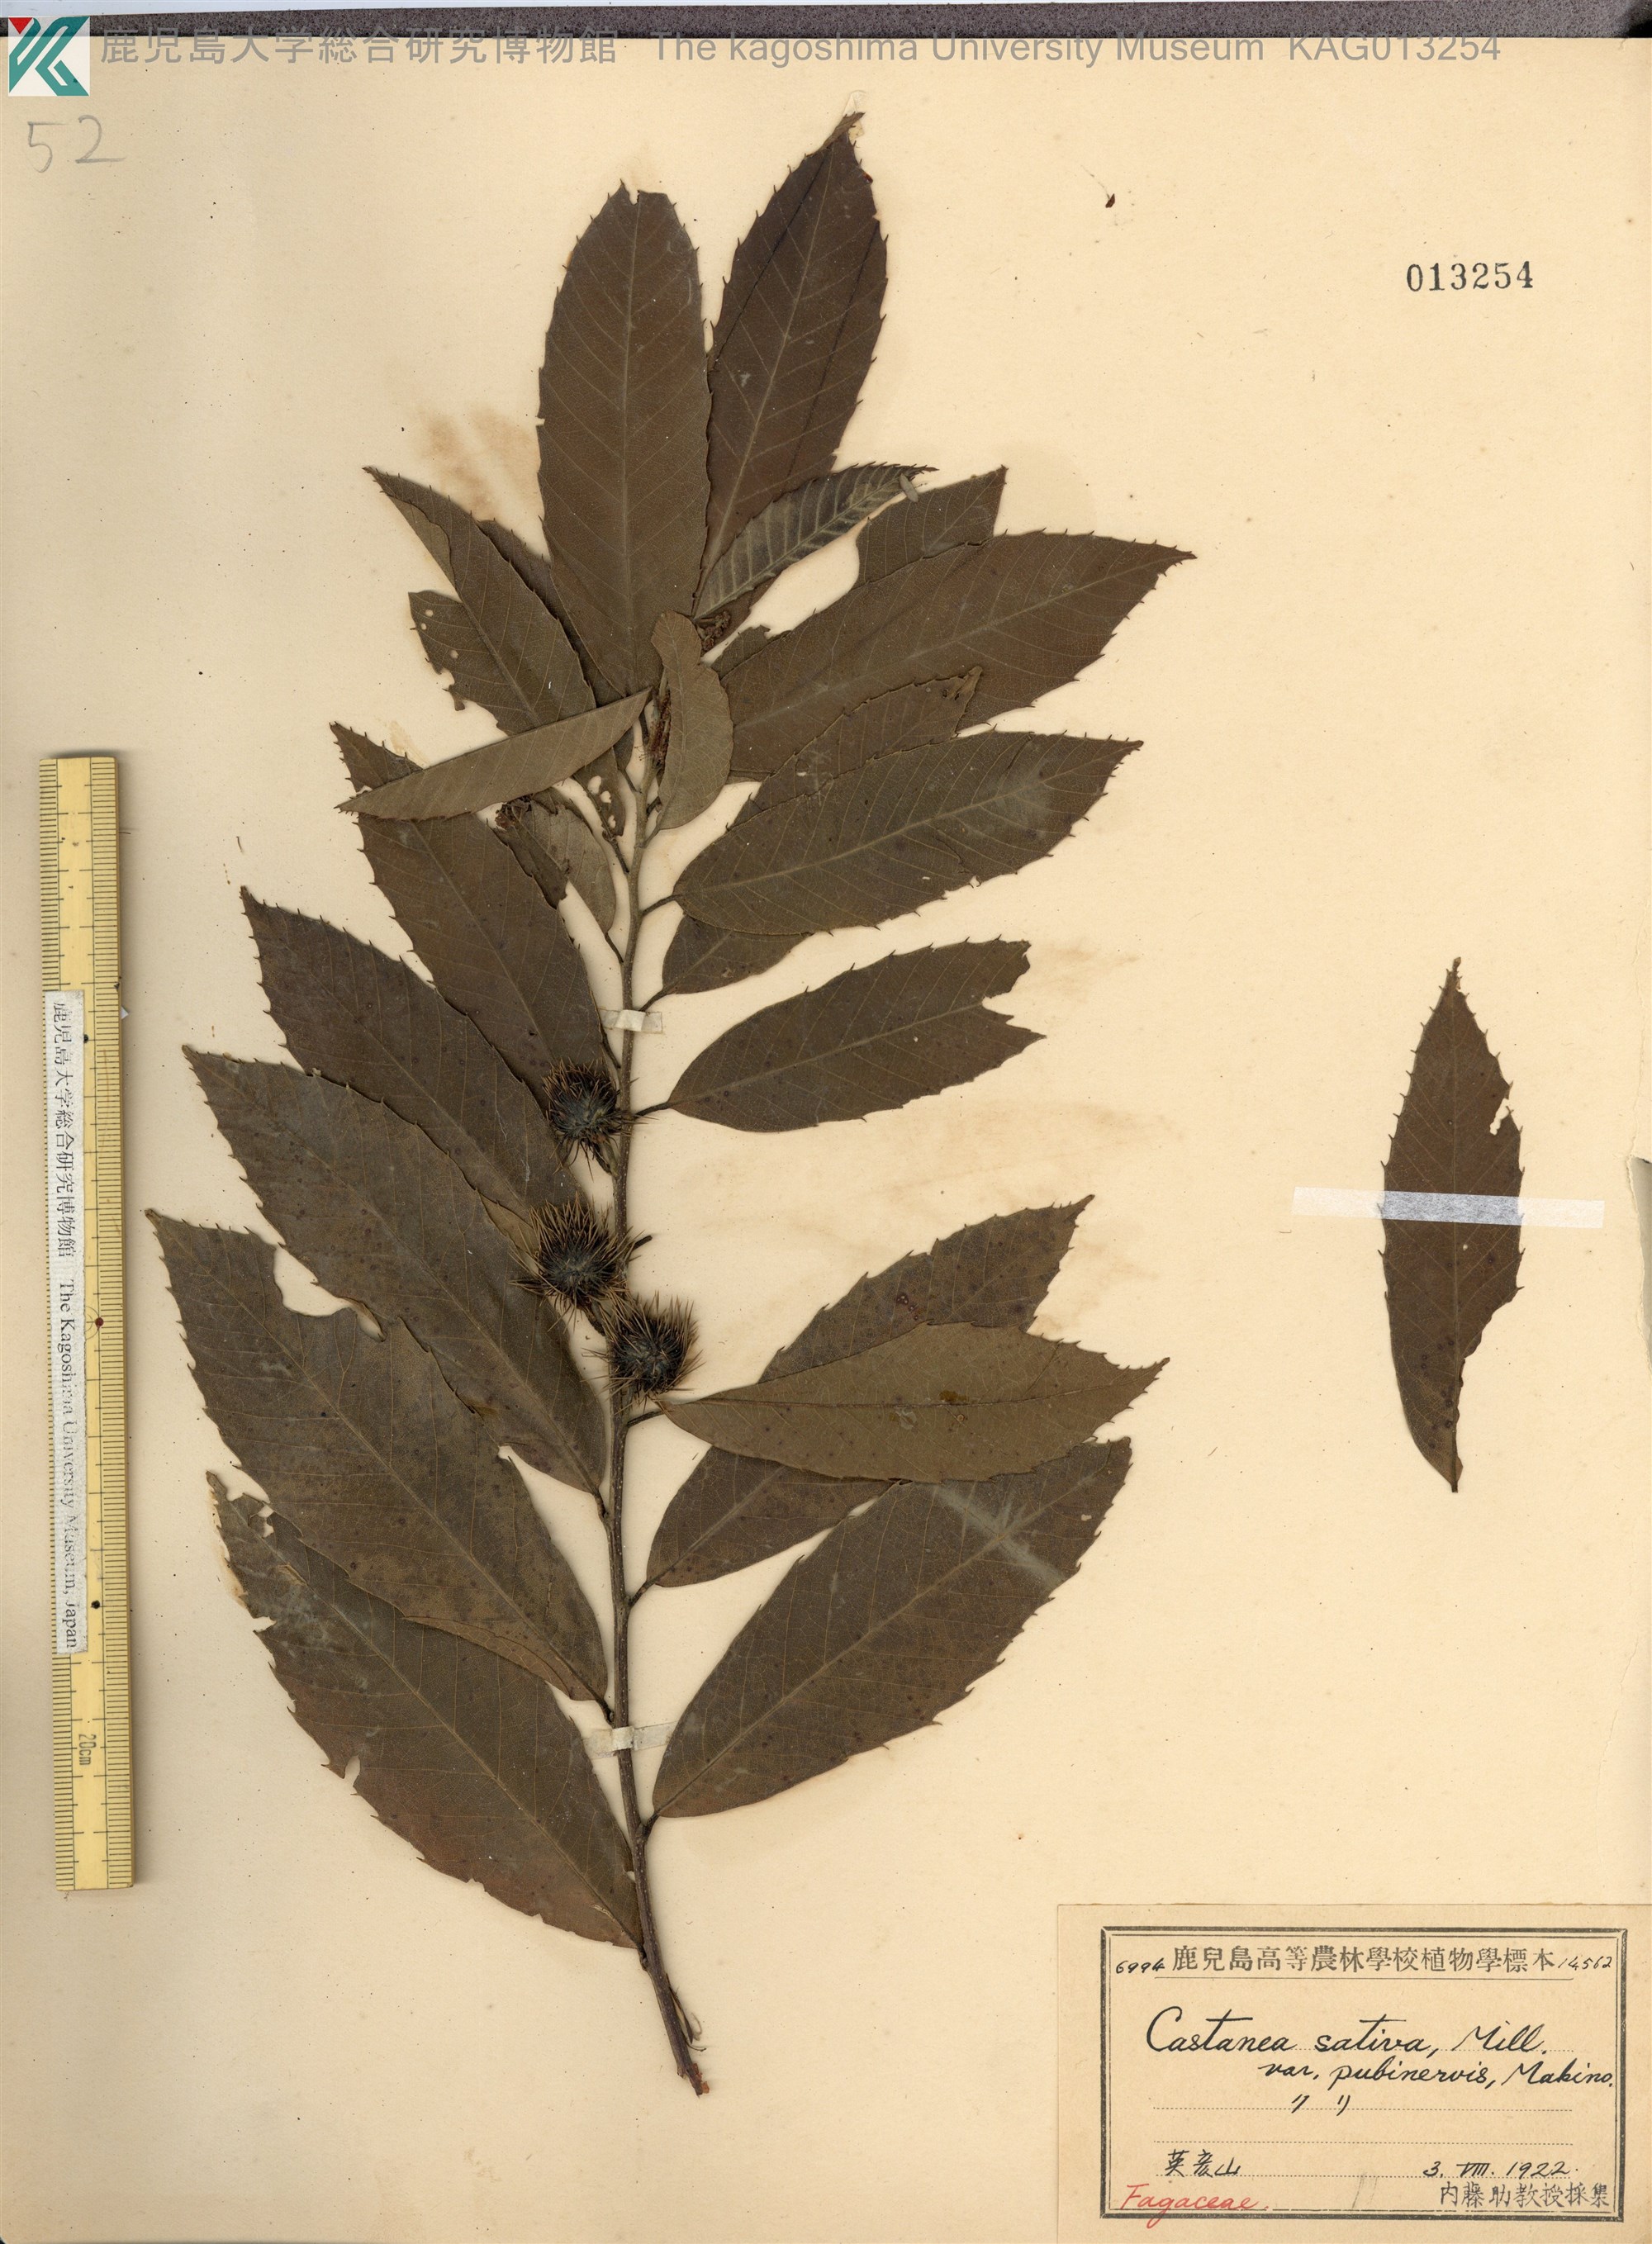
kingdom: Plantae
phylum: Tracheophyta
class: Magnoliopsida
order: Fagales
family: Fagaceae
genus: Castanea
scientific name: Castanea crenata
